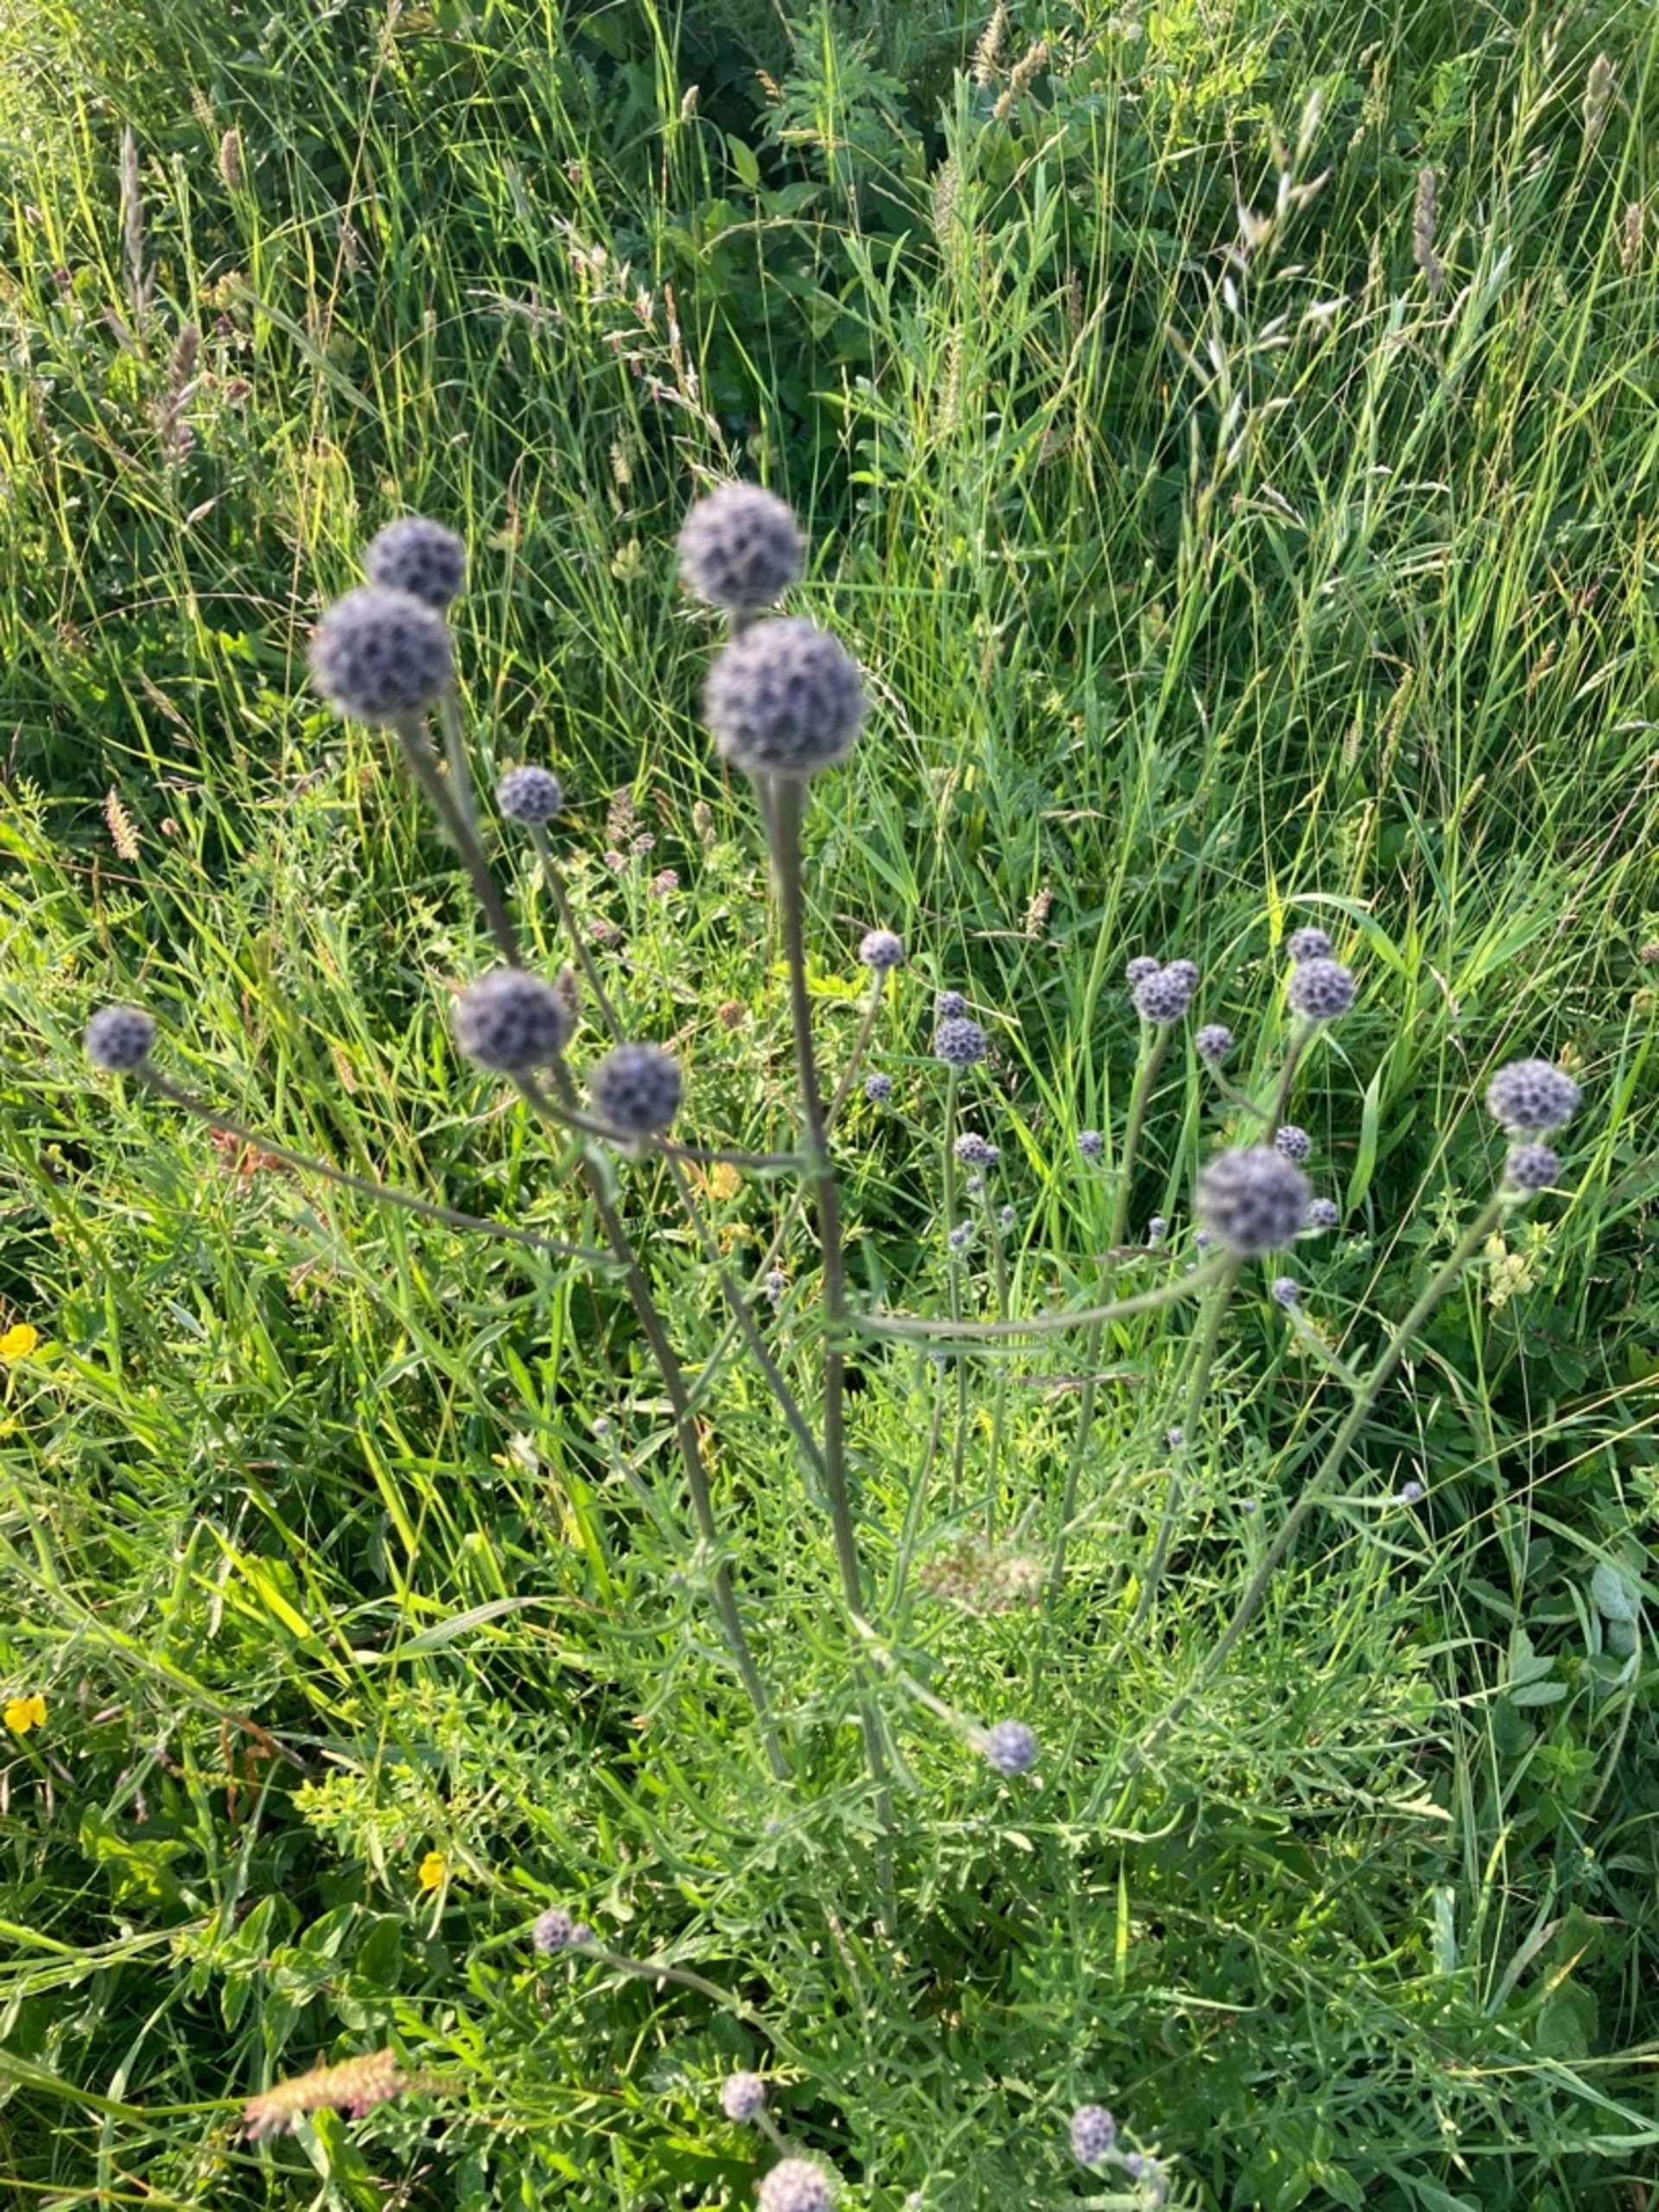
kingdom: Plantae
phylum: Tracheophyta
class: Magnoliopsida
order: Asterales
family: Asteraceae
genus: Centaurea
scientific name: Centaurea scabiosa
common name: Stor knopurt
